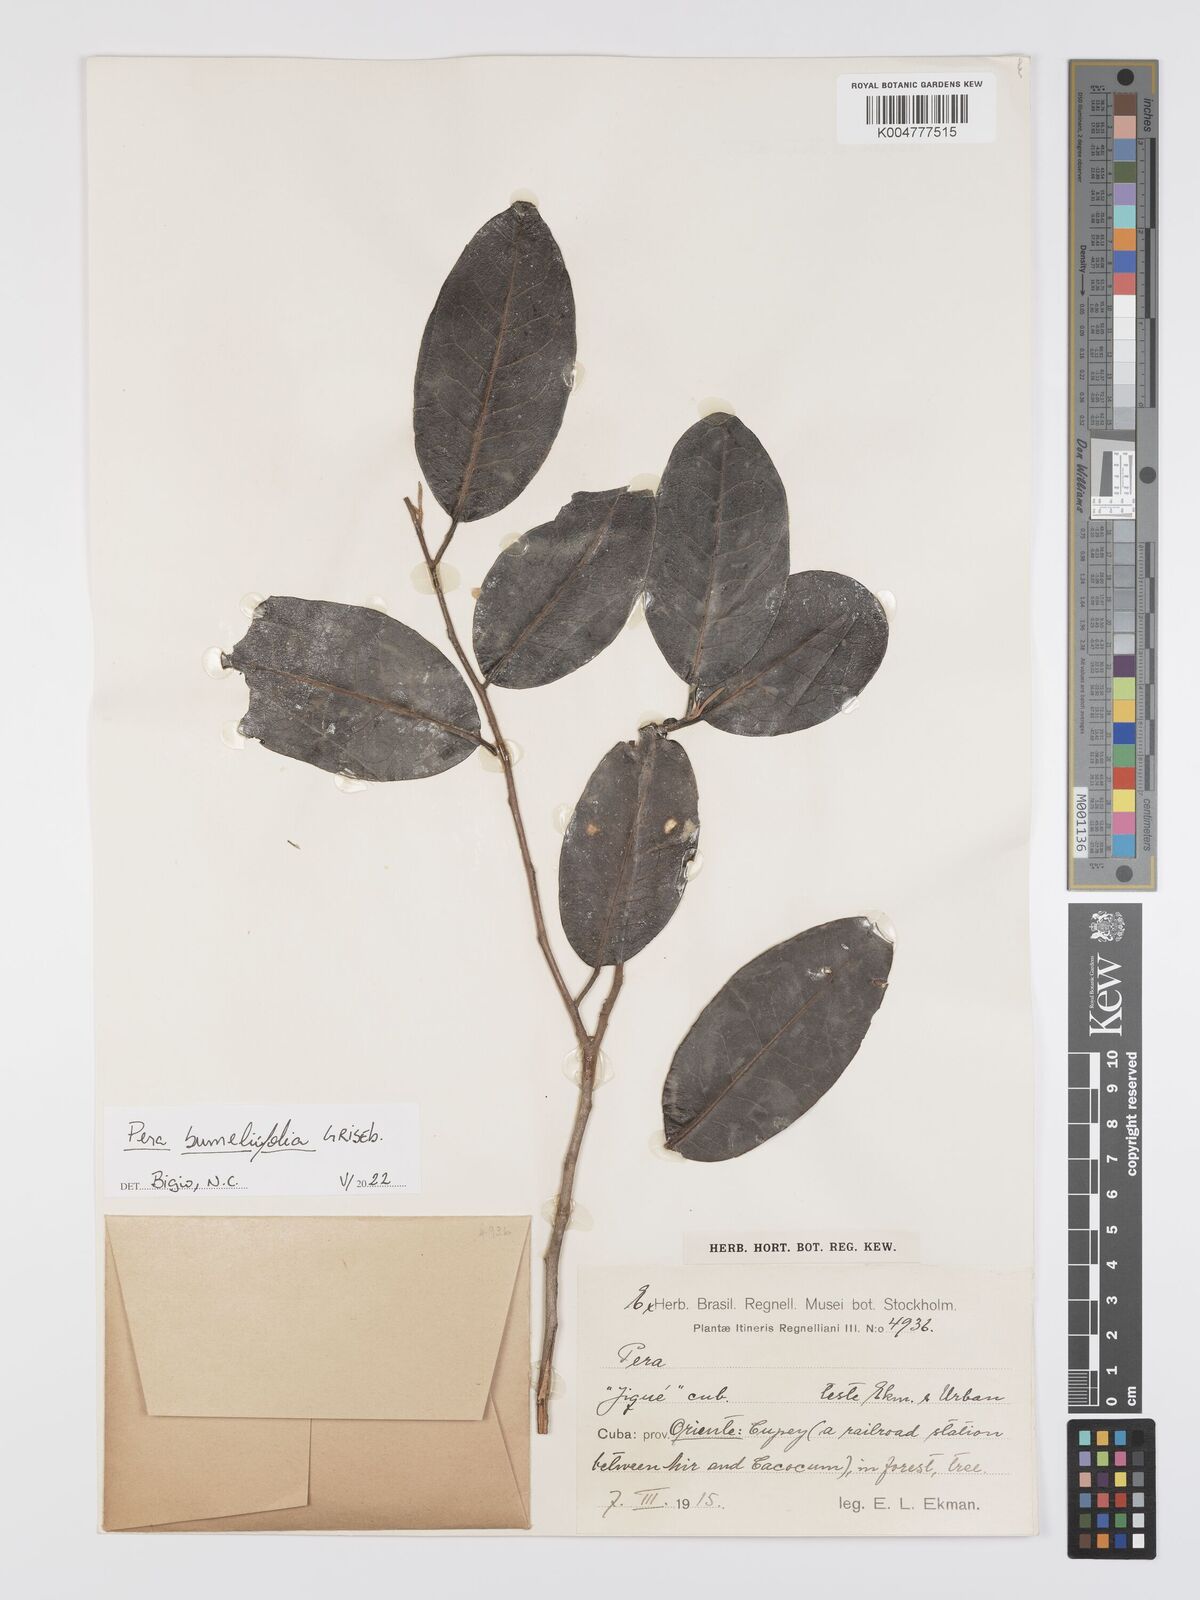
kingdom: Plantae
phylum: Tracheophyta
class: Magnoliopsida
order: Malpighiales
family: Peraceae
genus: Pera
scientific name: Pera
